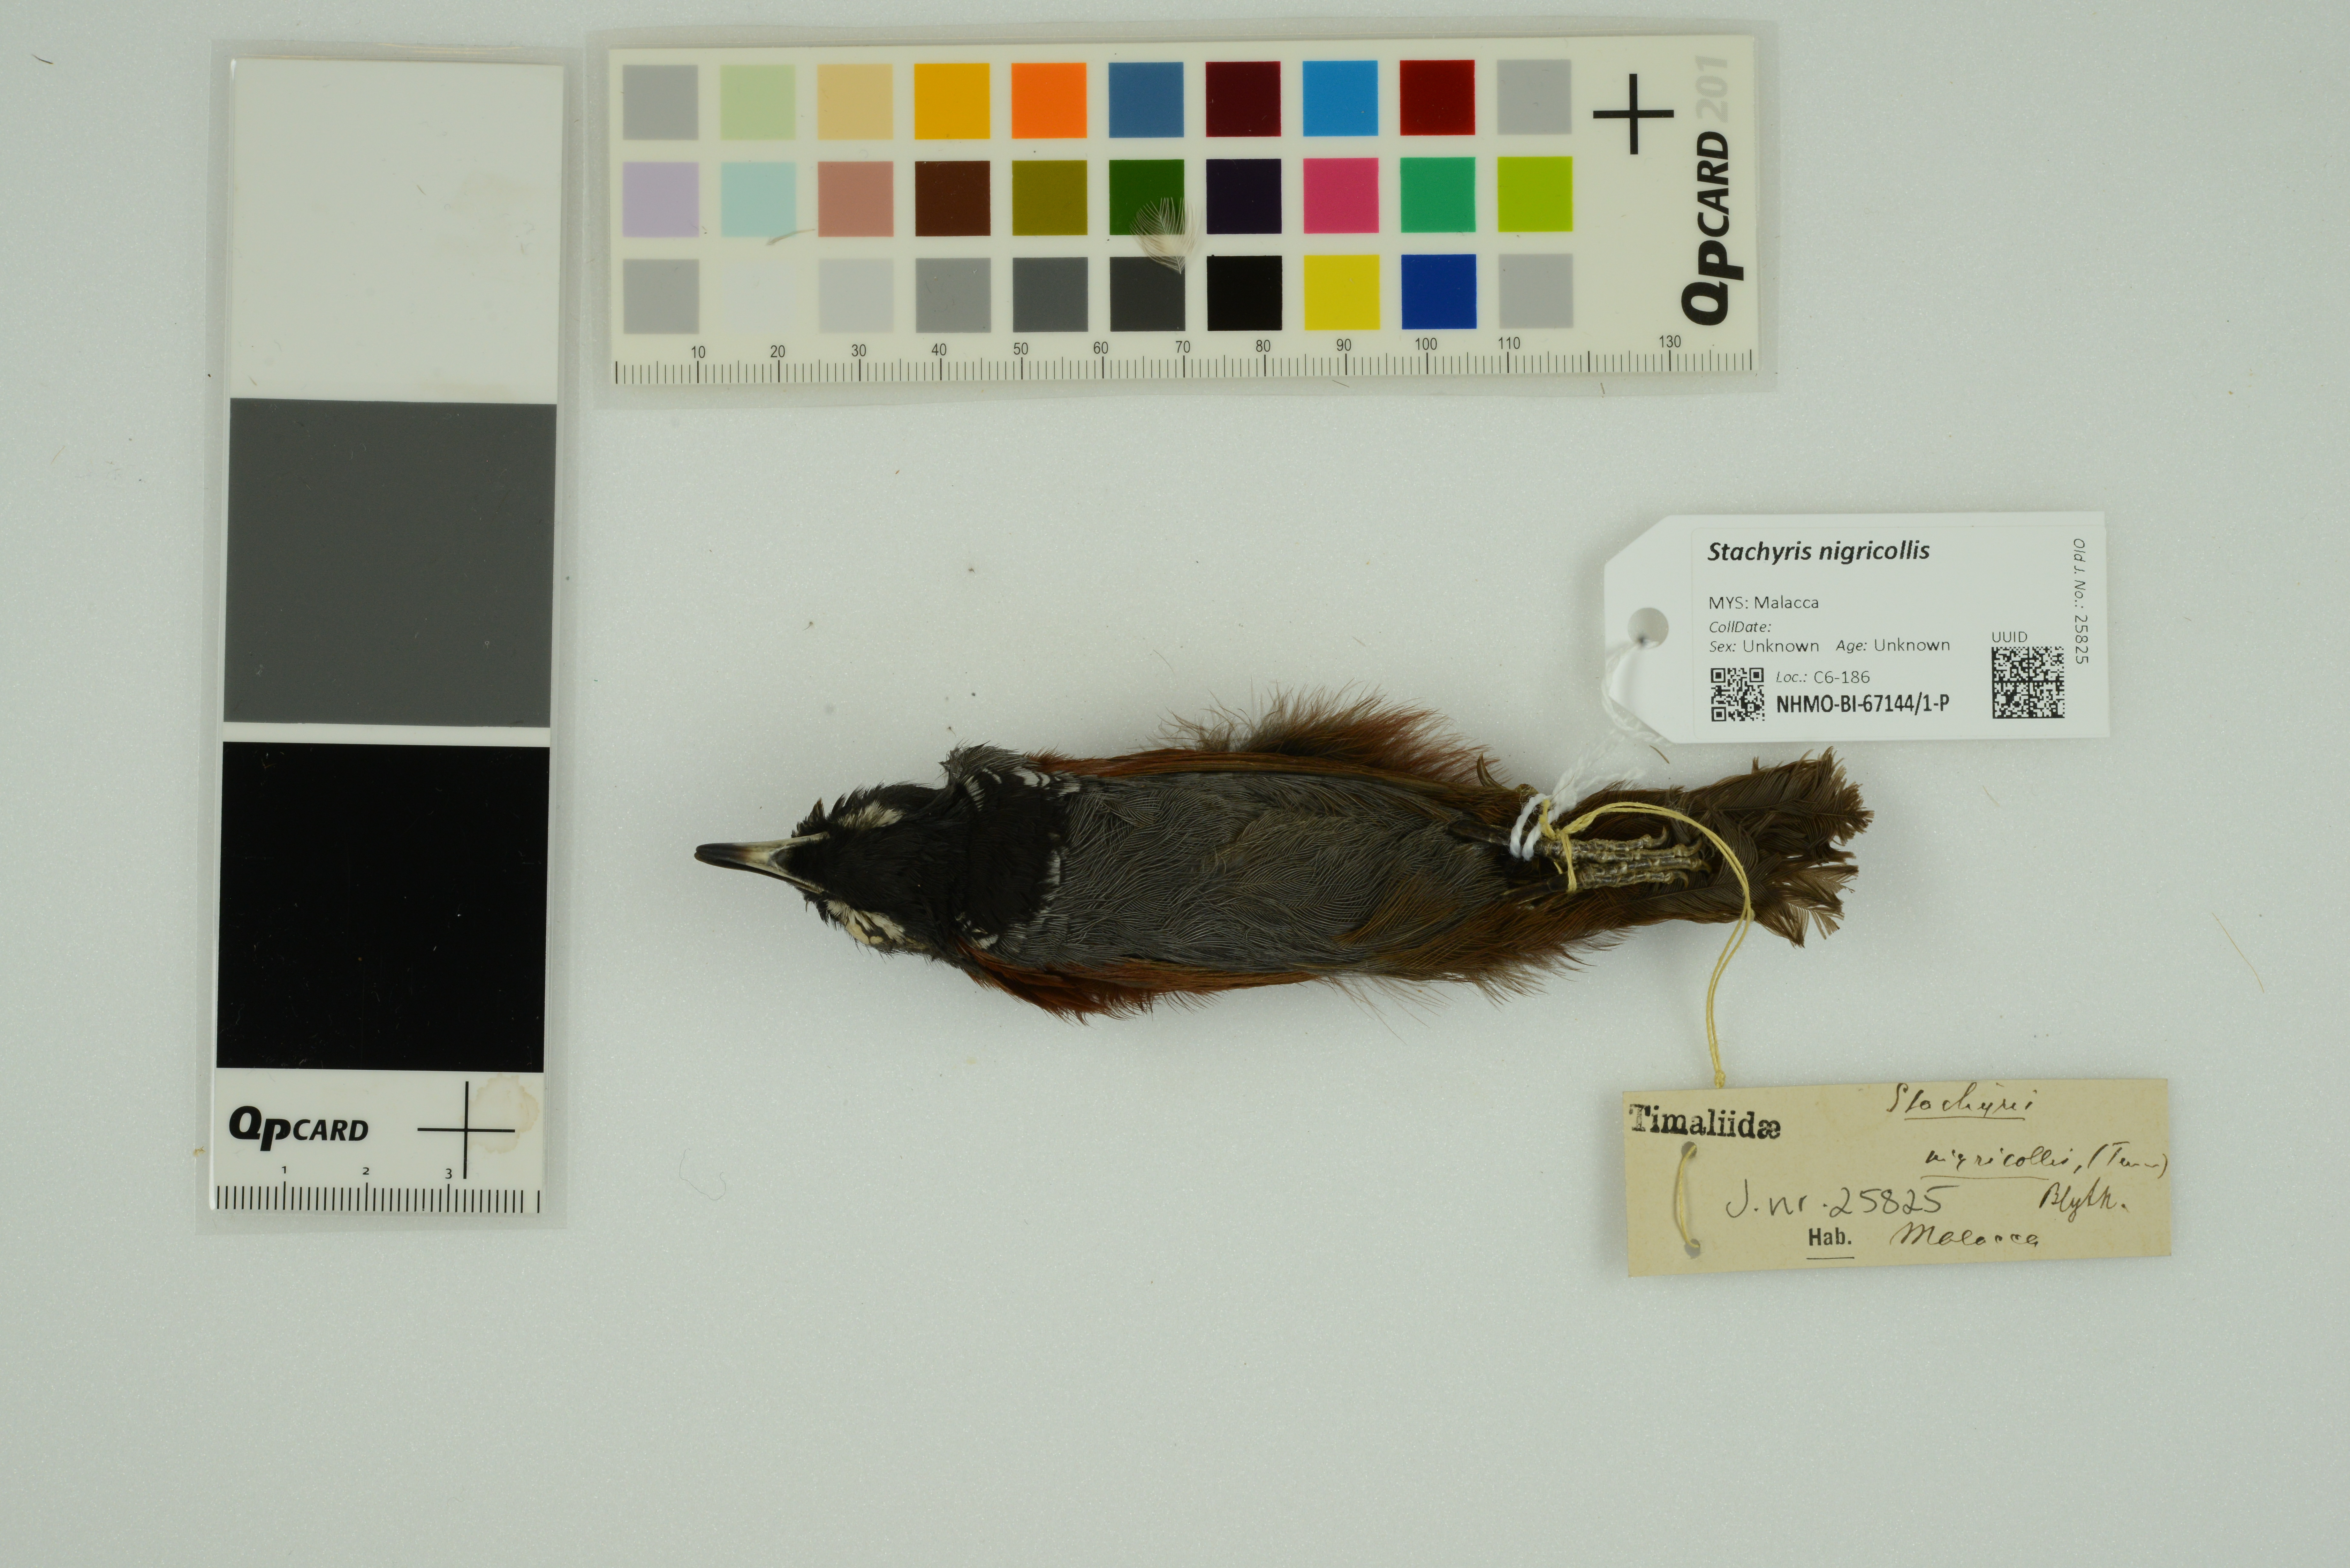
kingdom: Animalia
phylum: Chordata
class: Aves
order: Passeriformes
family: Timaliidae
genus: Stachyris
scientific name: Stachyris nigricollis
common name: Black-throated babbler
